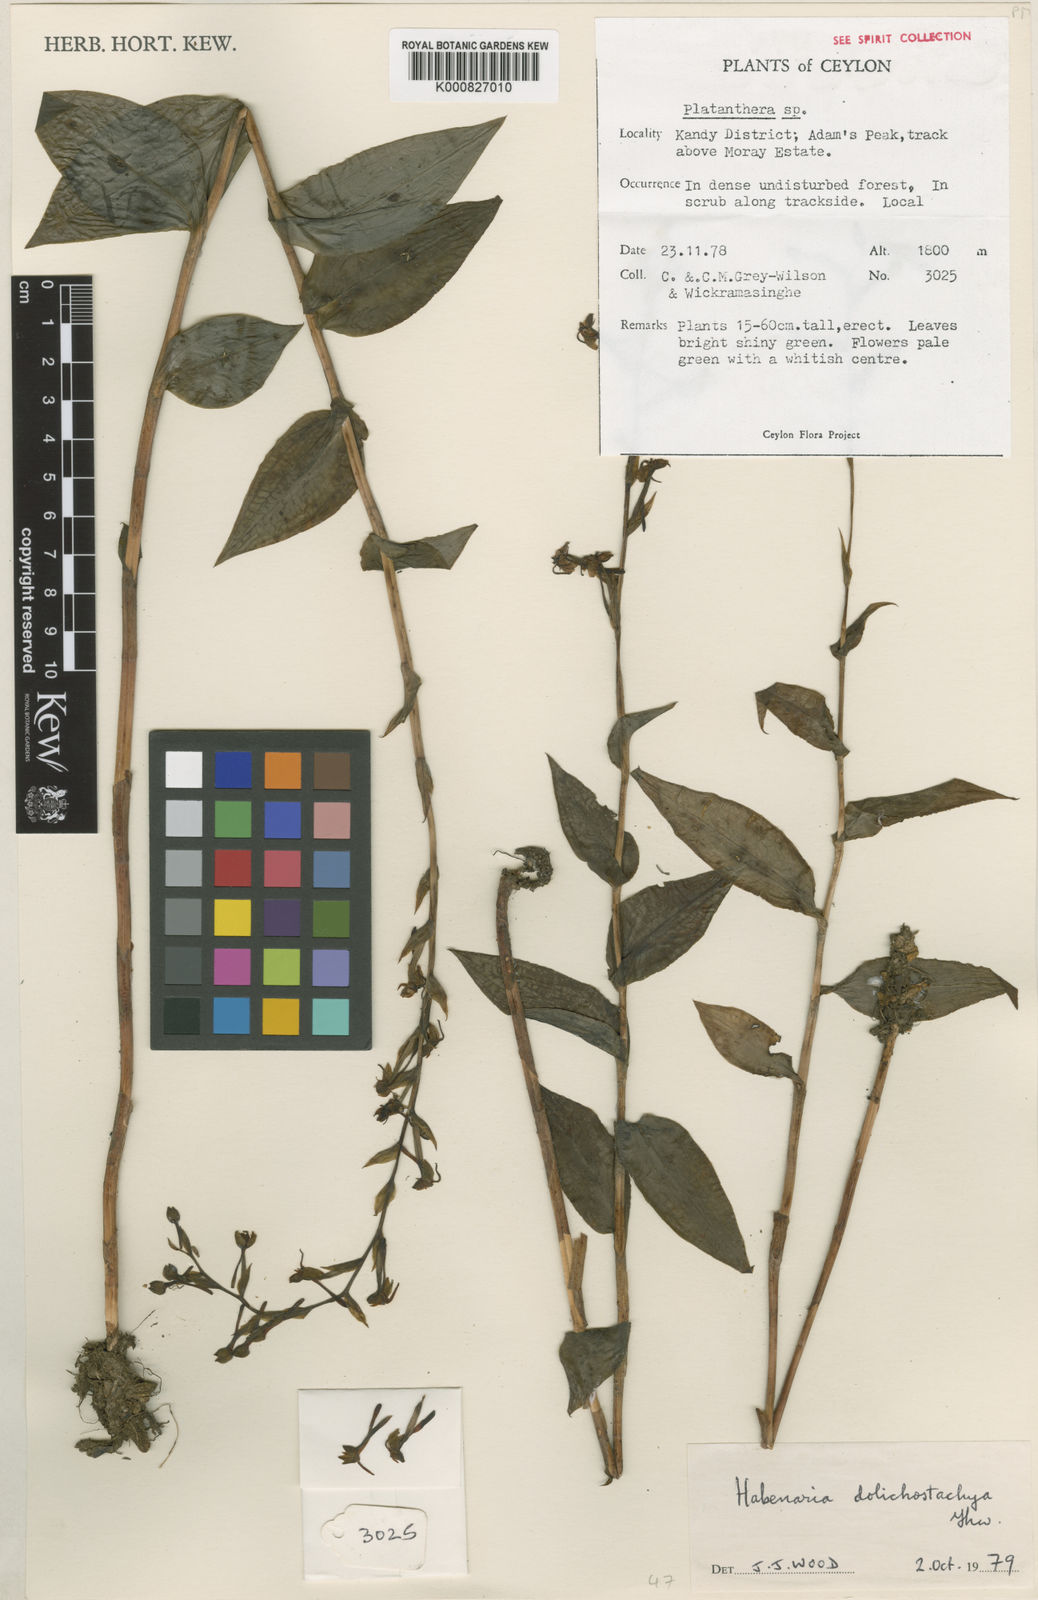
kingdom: Plantae
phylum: Tracheophyta
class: Liliopsida
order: Asparagales
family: Orchidaceae
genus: Habenaria
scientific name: Habenaria dolichostachya
